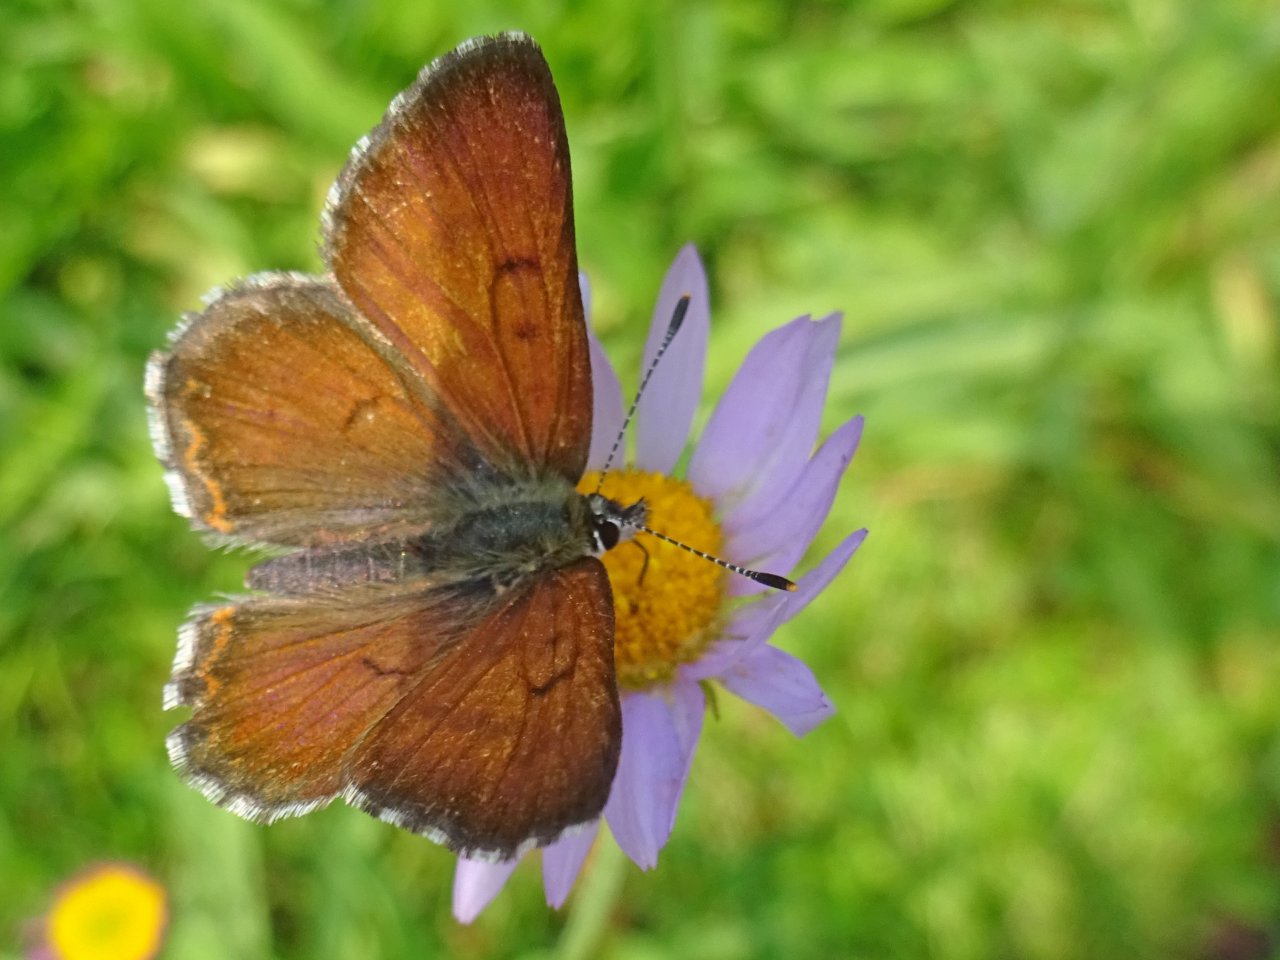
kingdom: Animalia
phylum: Arthropoda
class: Insecta
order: Lepidoptera
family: Lycaenidae
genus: Lycaena
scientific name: Lycaena mariposa
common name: Mariposa Copper
